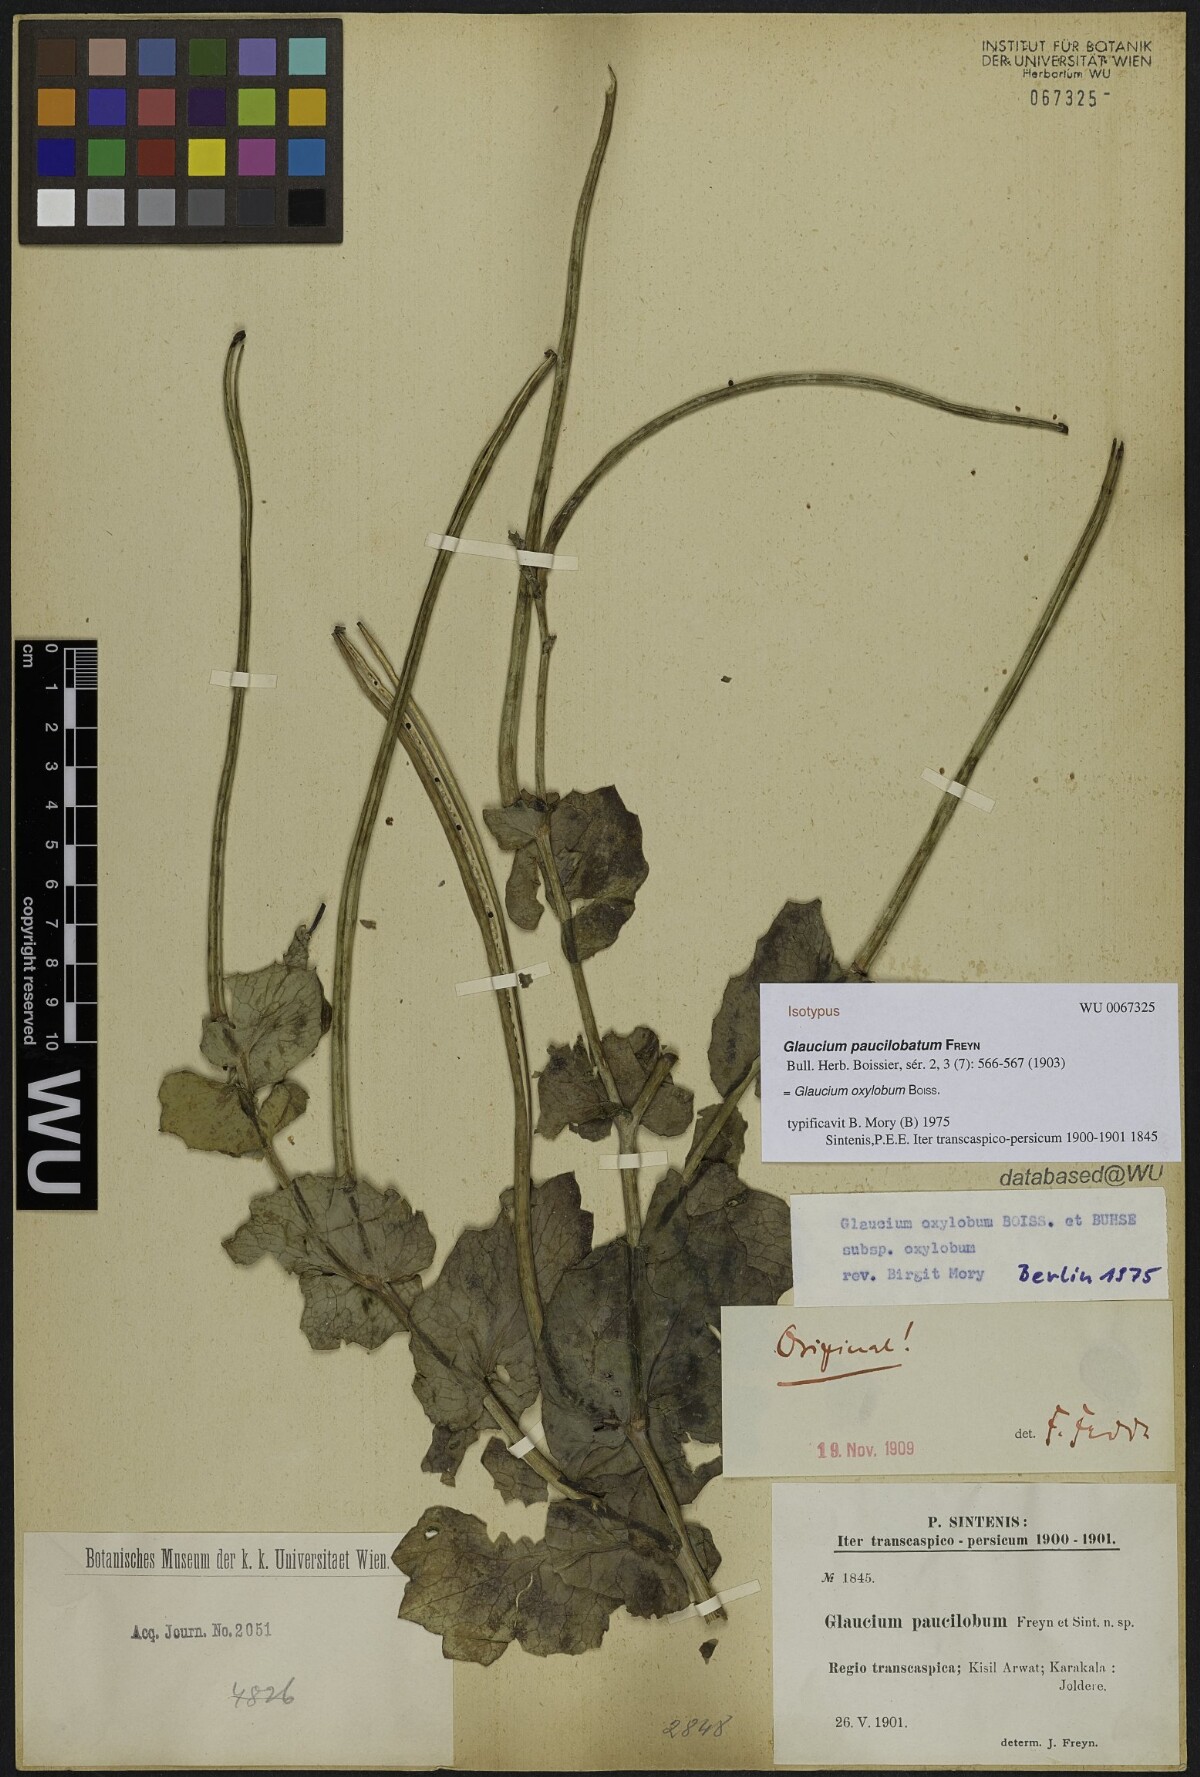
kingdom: Plantae
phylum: Tracheophyta
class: Magnoliopsida
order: Ranunculales
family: Papaveraceae
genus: Glaucium
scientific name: Glaucium paucilobatum
